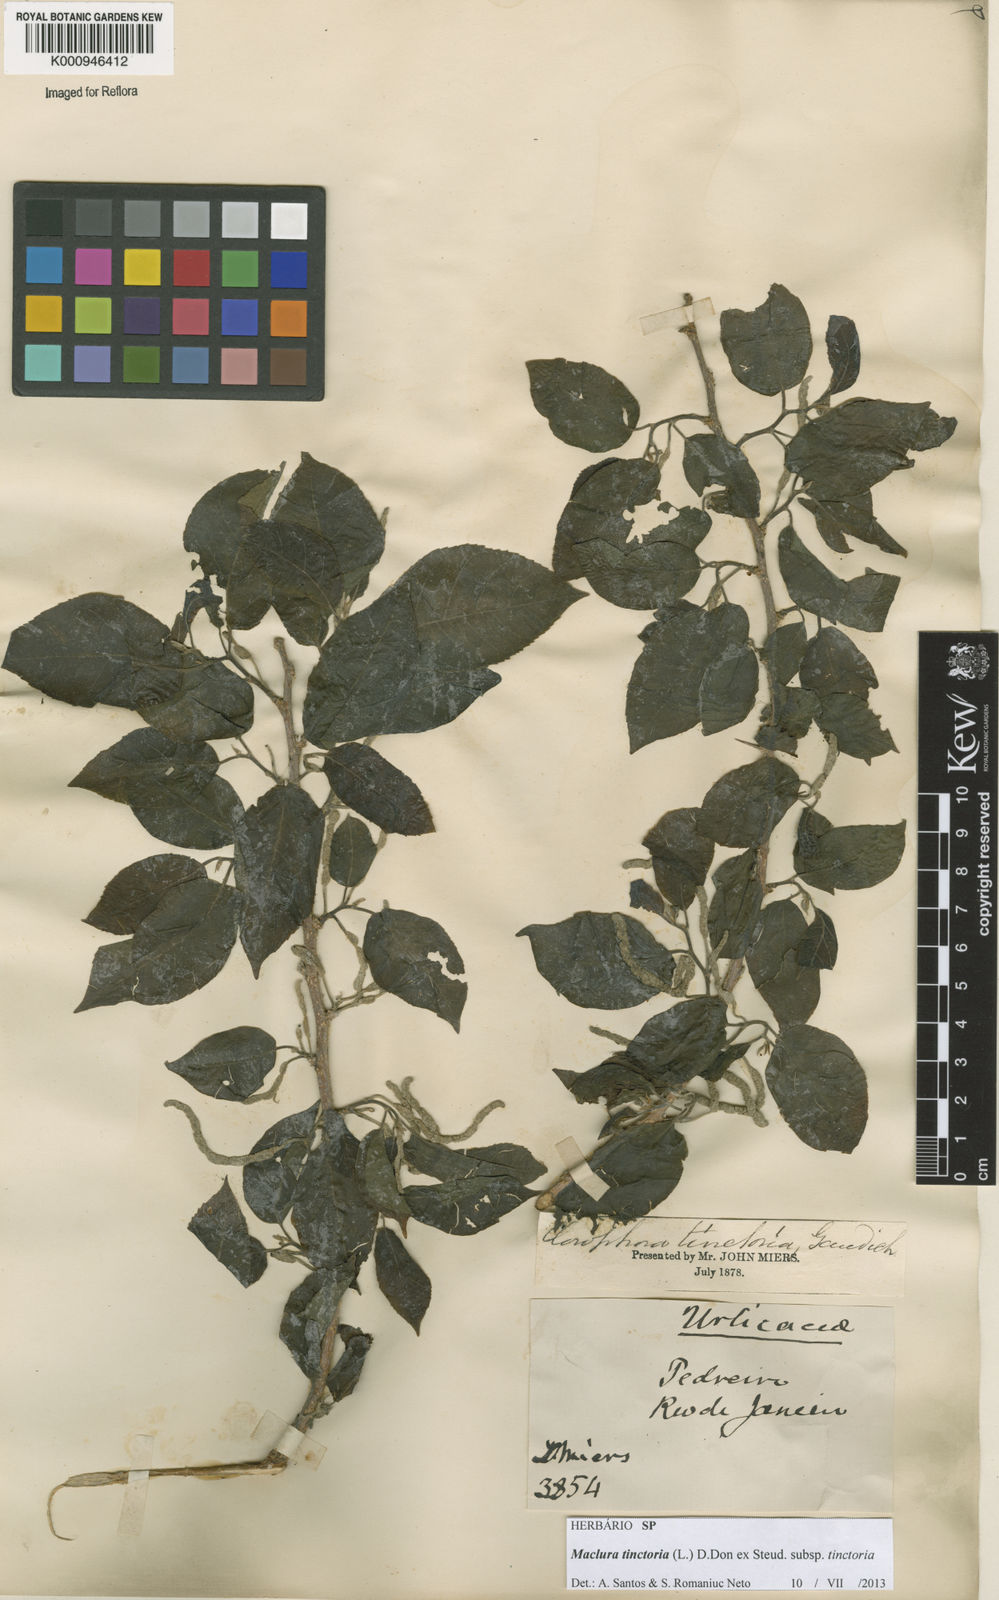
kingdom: Plantae
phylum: Tracheophyta
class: Magnoliopsida
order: Rosales
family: Moraceae
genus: Maclura
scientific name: Maclura
